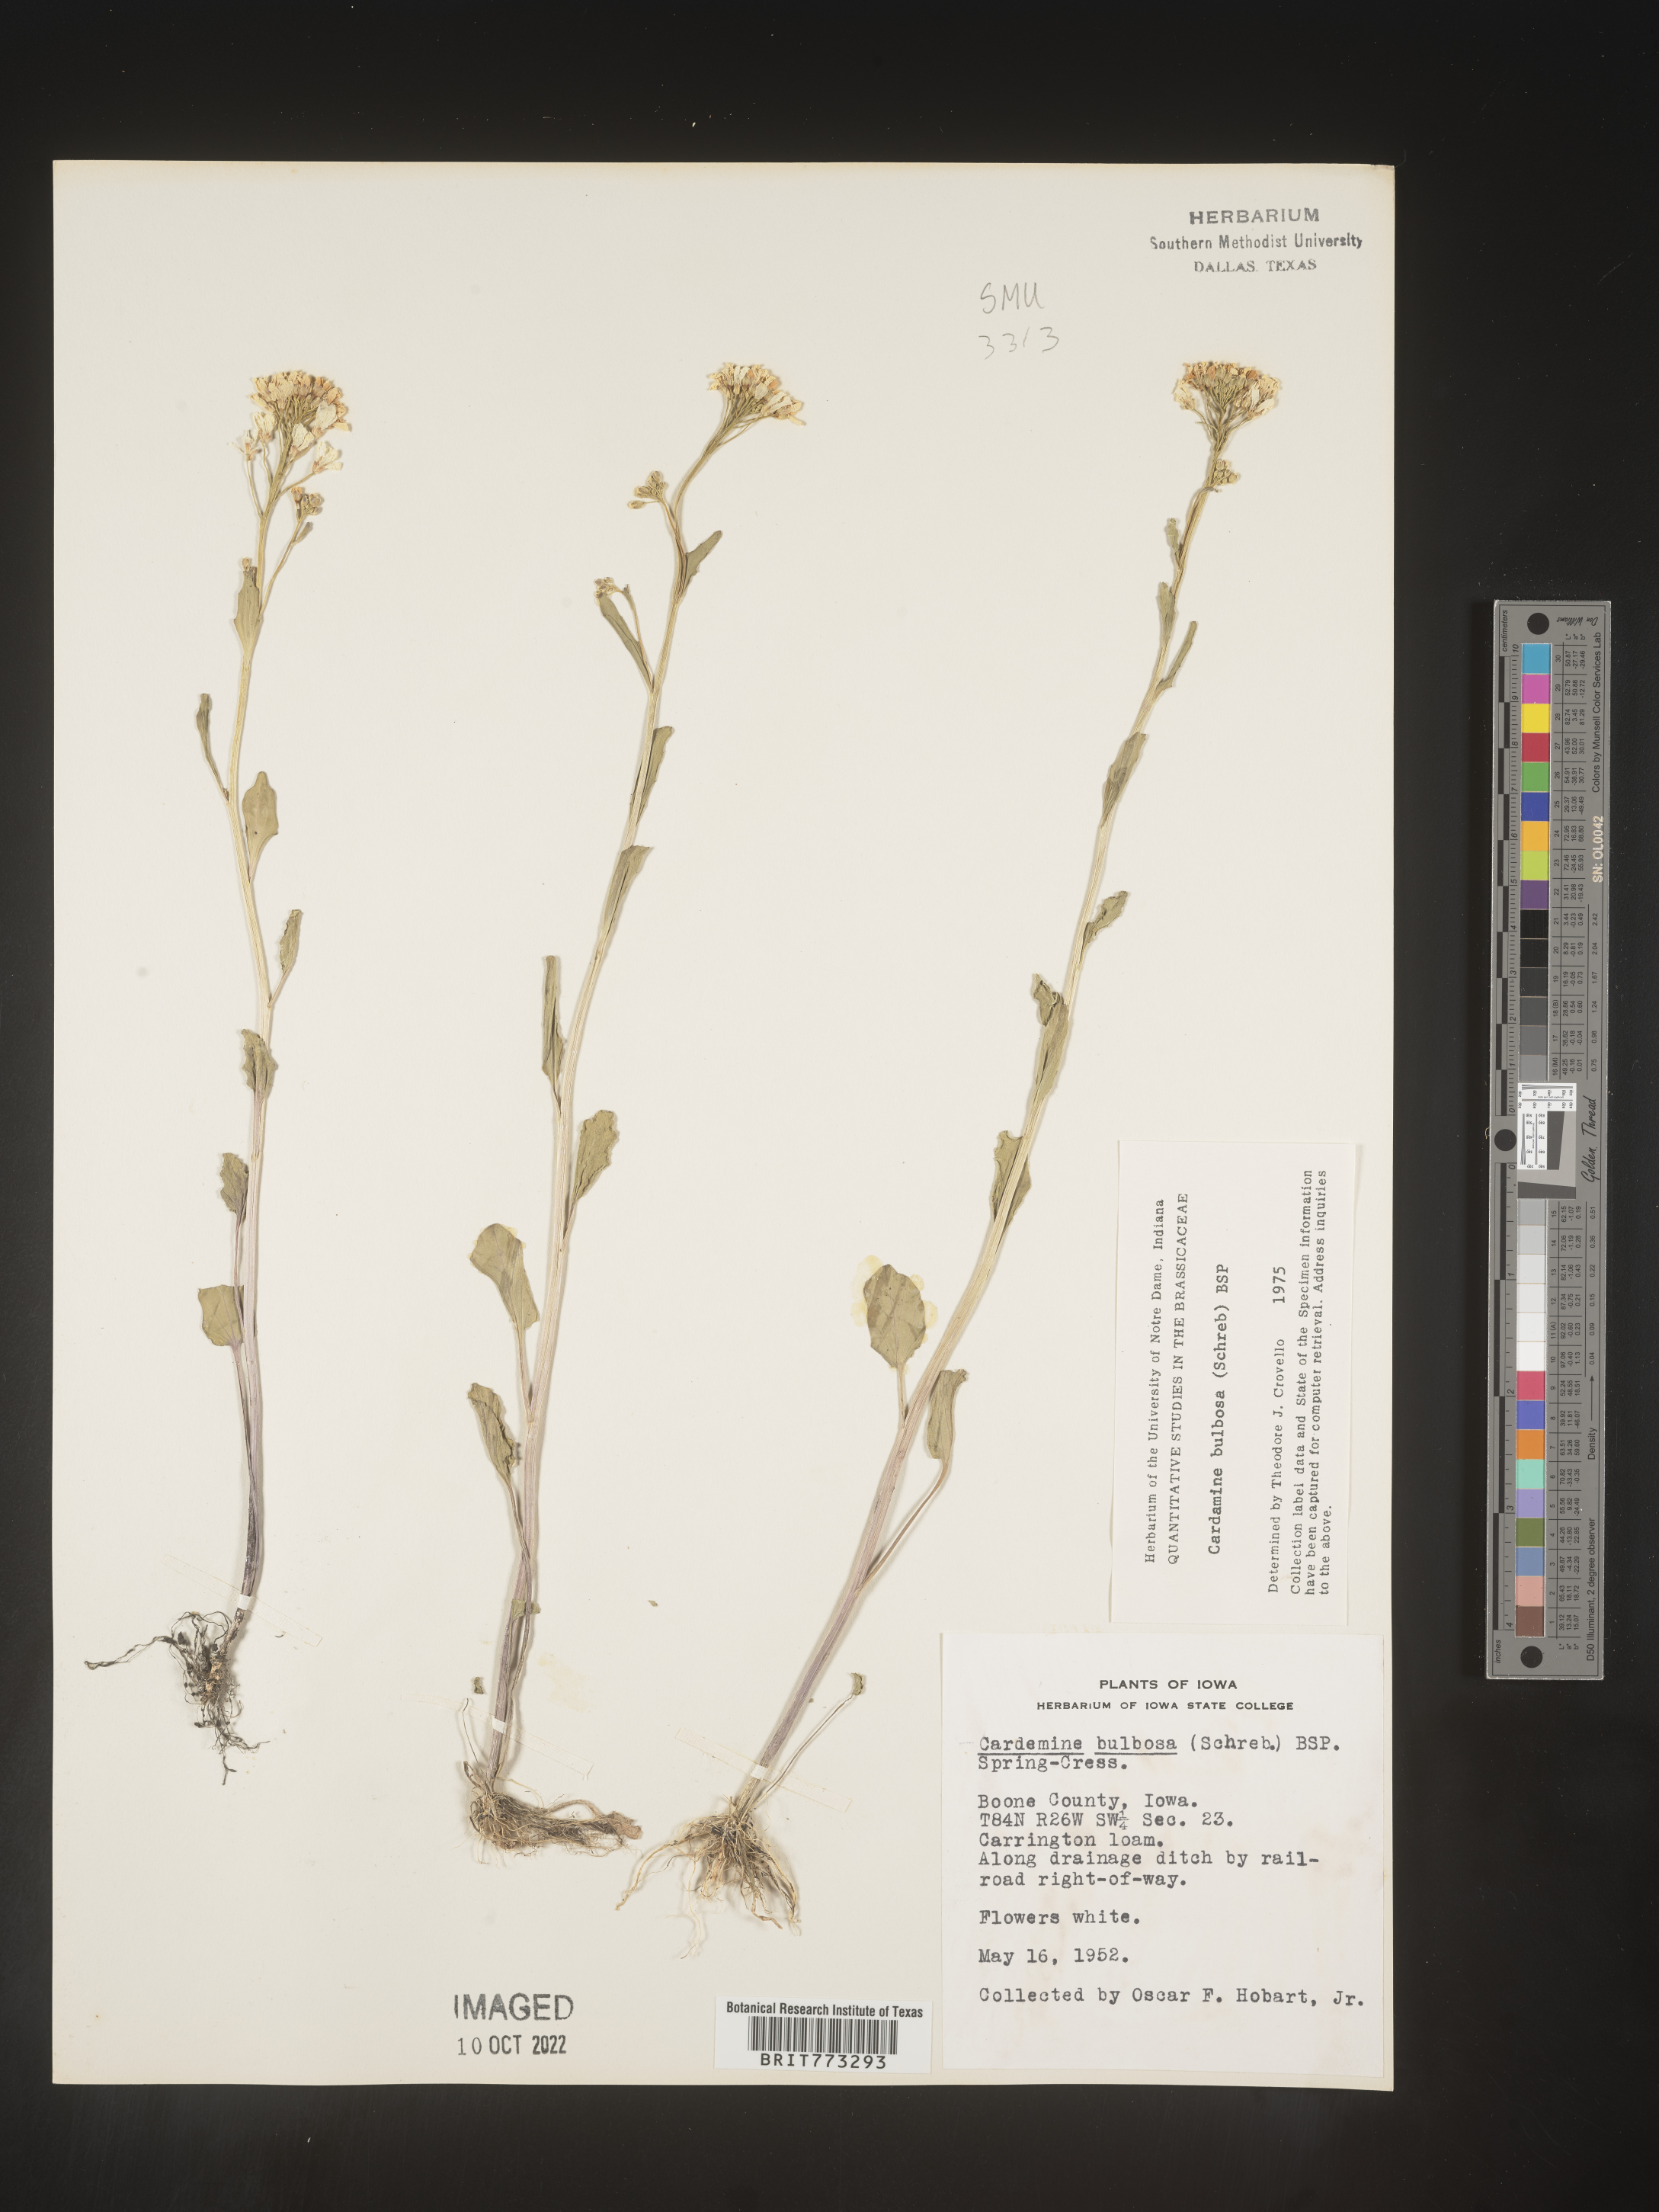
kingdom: Plantae
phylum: Tracheophyta
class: Magnoliopsida
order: Brassicales
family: Brassicaceae
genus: Cardamine
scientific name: Cardamine bulbosa
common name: Spring cress
